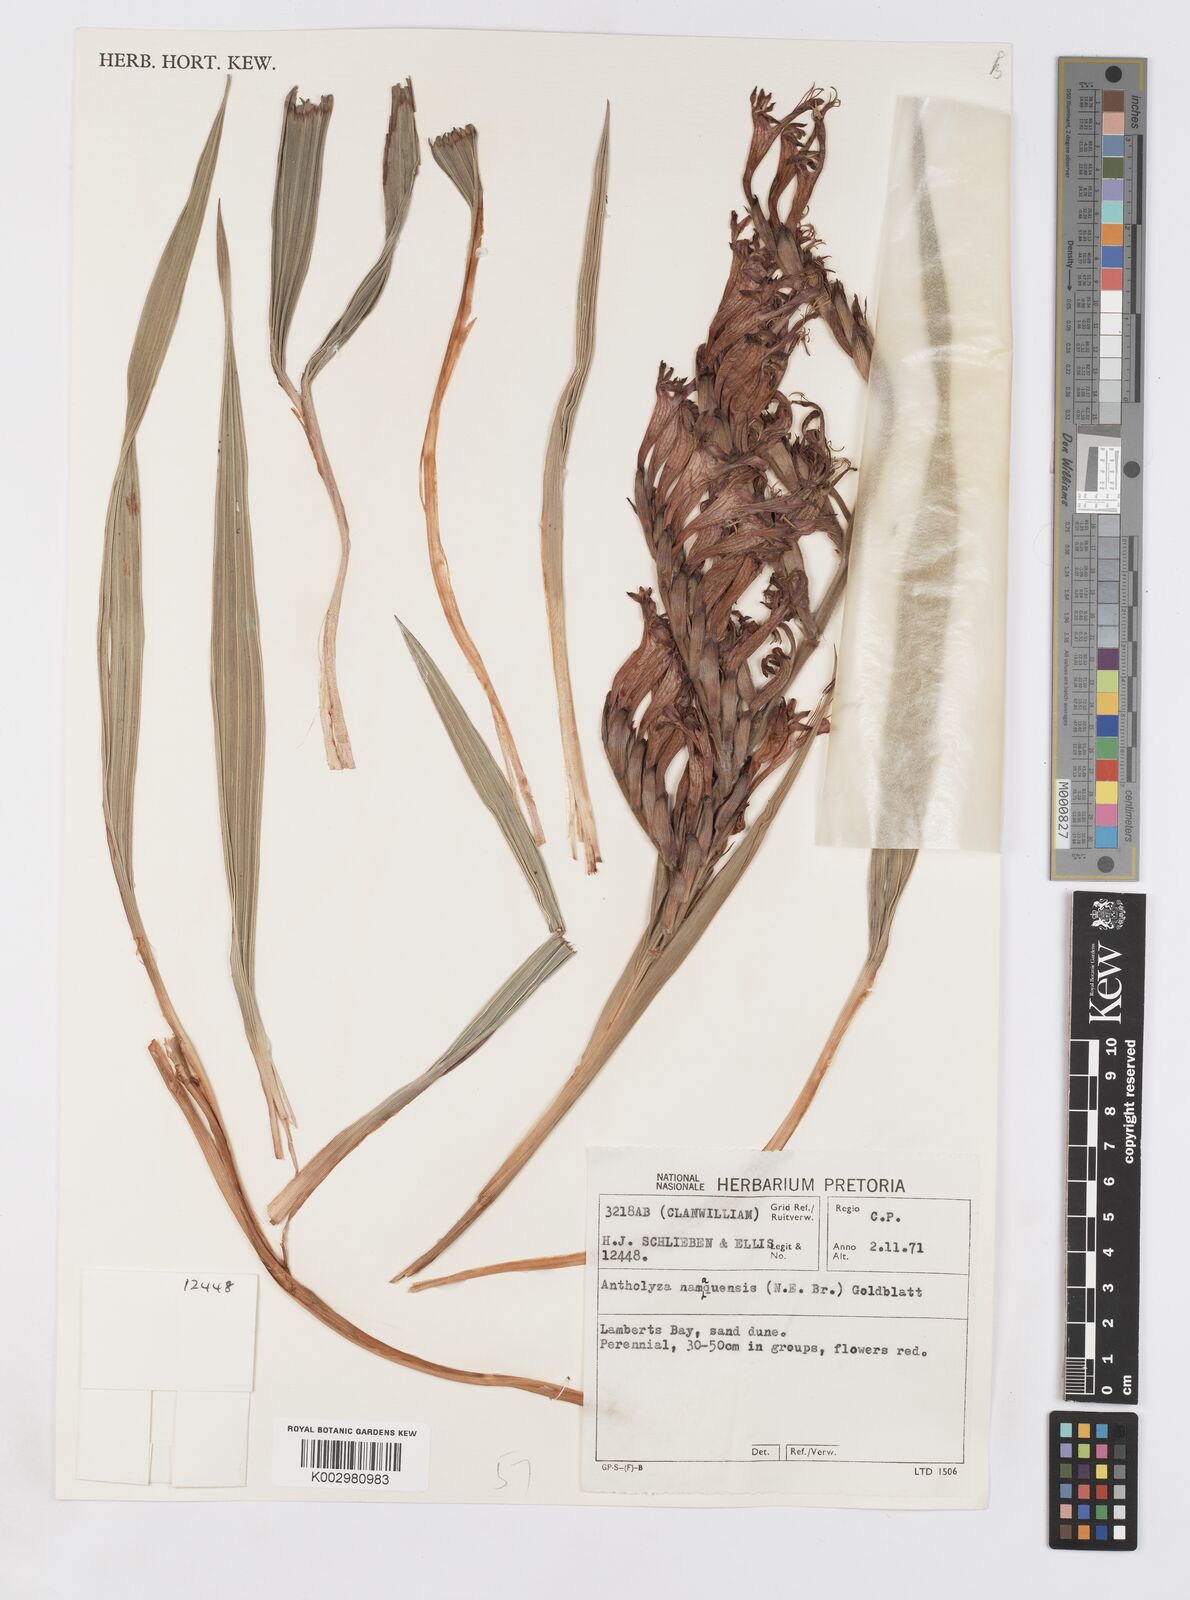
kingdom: Plantae
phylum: Tracheophyta
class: Liliopsida
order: Asparagales
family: Iridaceae
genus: Babiana
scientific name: Babiana
